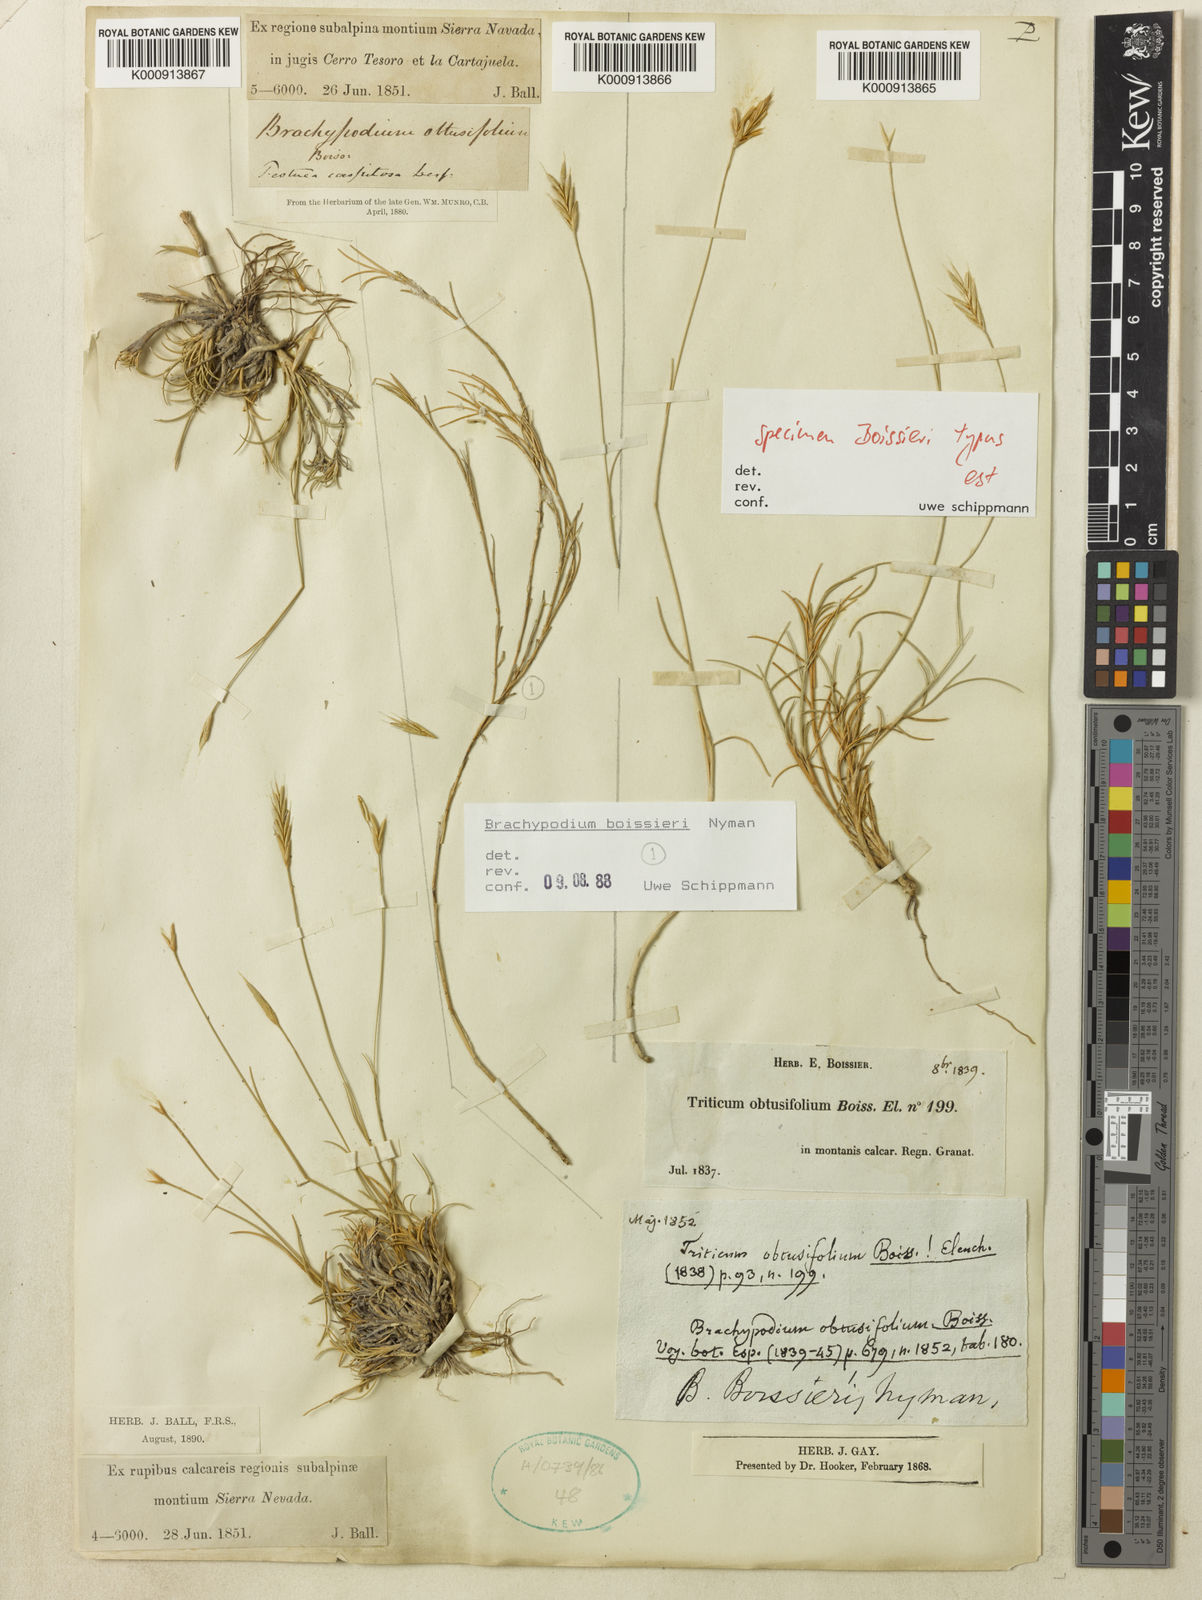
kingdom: Plantae
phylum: Tracheophyta
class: Liliopsida
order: Poales
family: Poaceae
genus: Brachypodium
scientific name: Brachypodium retusum
